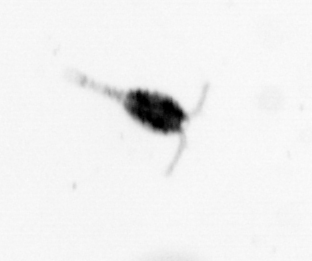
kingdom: Animalia
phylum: Arthropoda
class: Copepoda
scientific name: Copepoda
